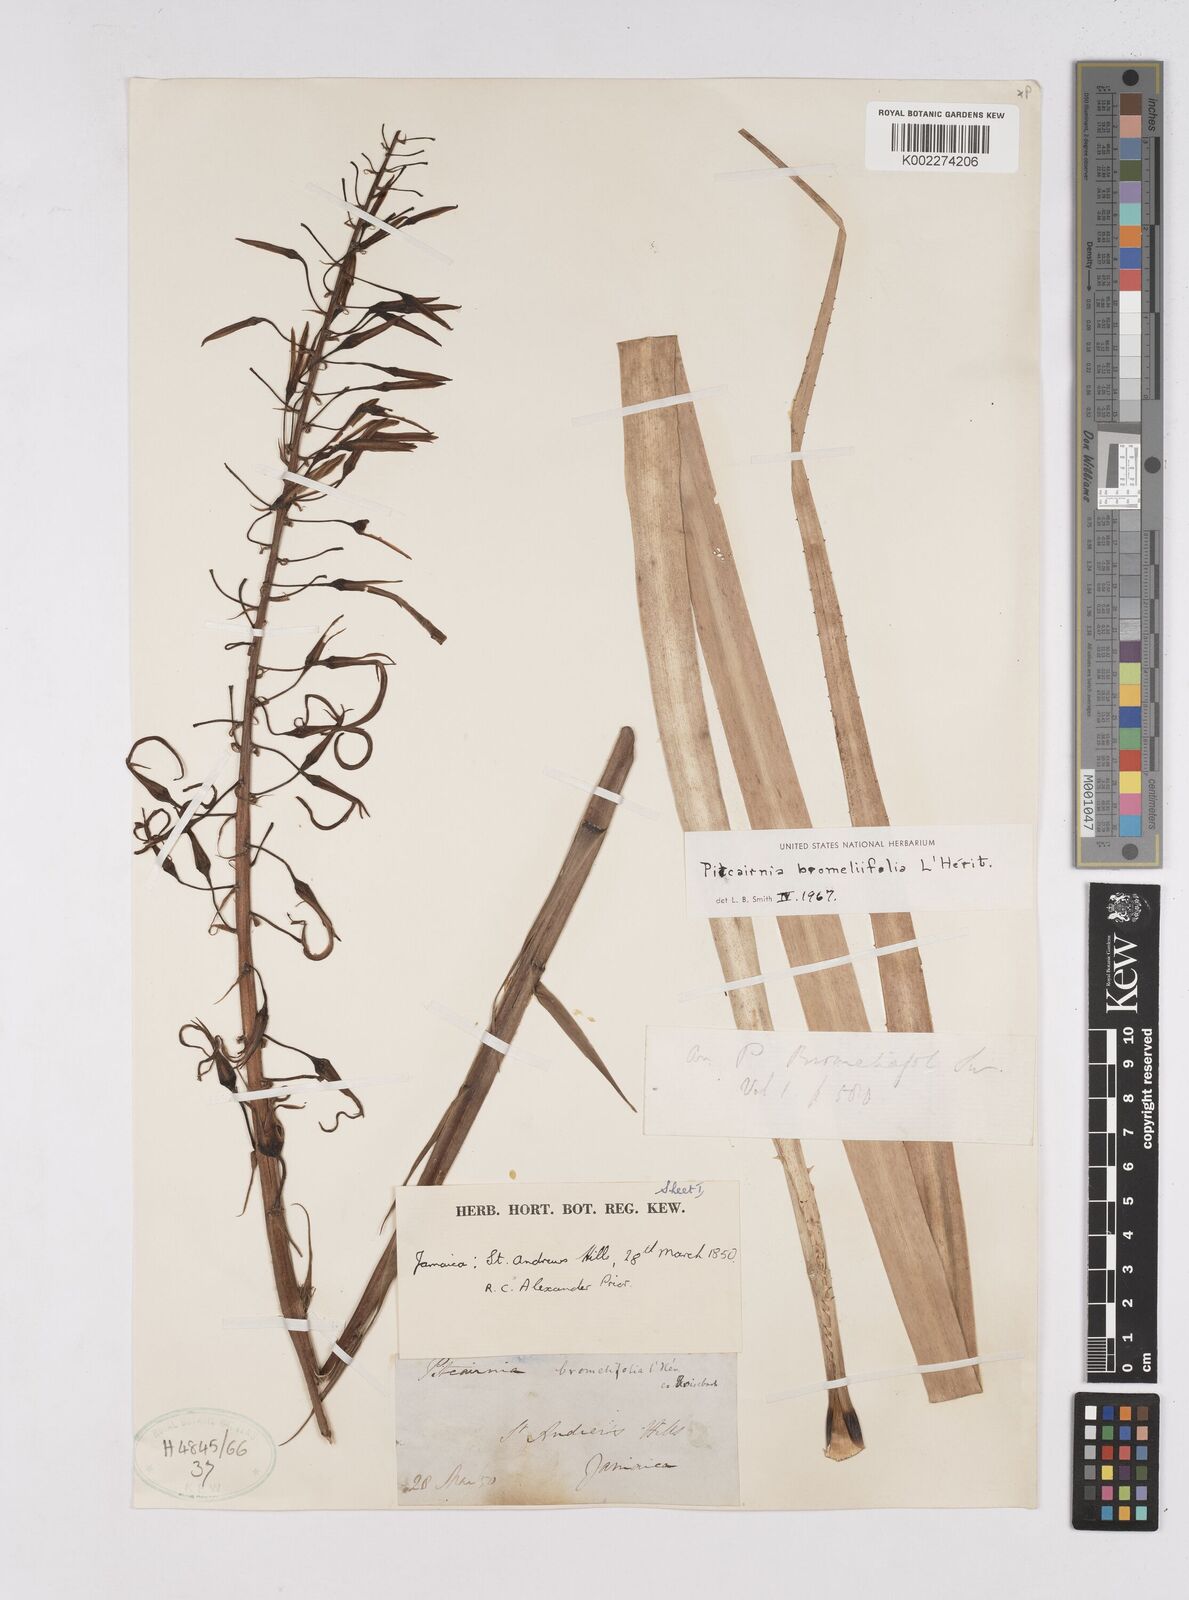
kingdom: Plantae
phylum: Tracheophyta
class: Liliopsida
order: Poales
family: Bromeliaceae
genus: Pitcairnia
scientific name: Pitcairnia bromeliifolia
